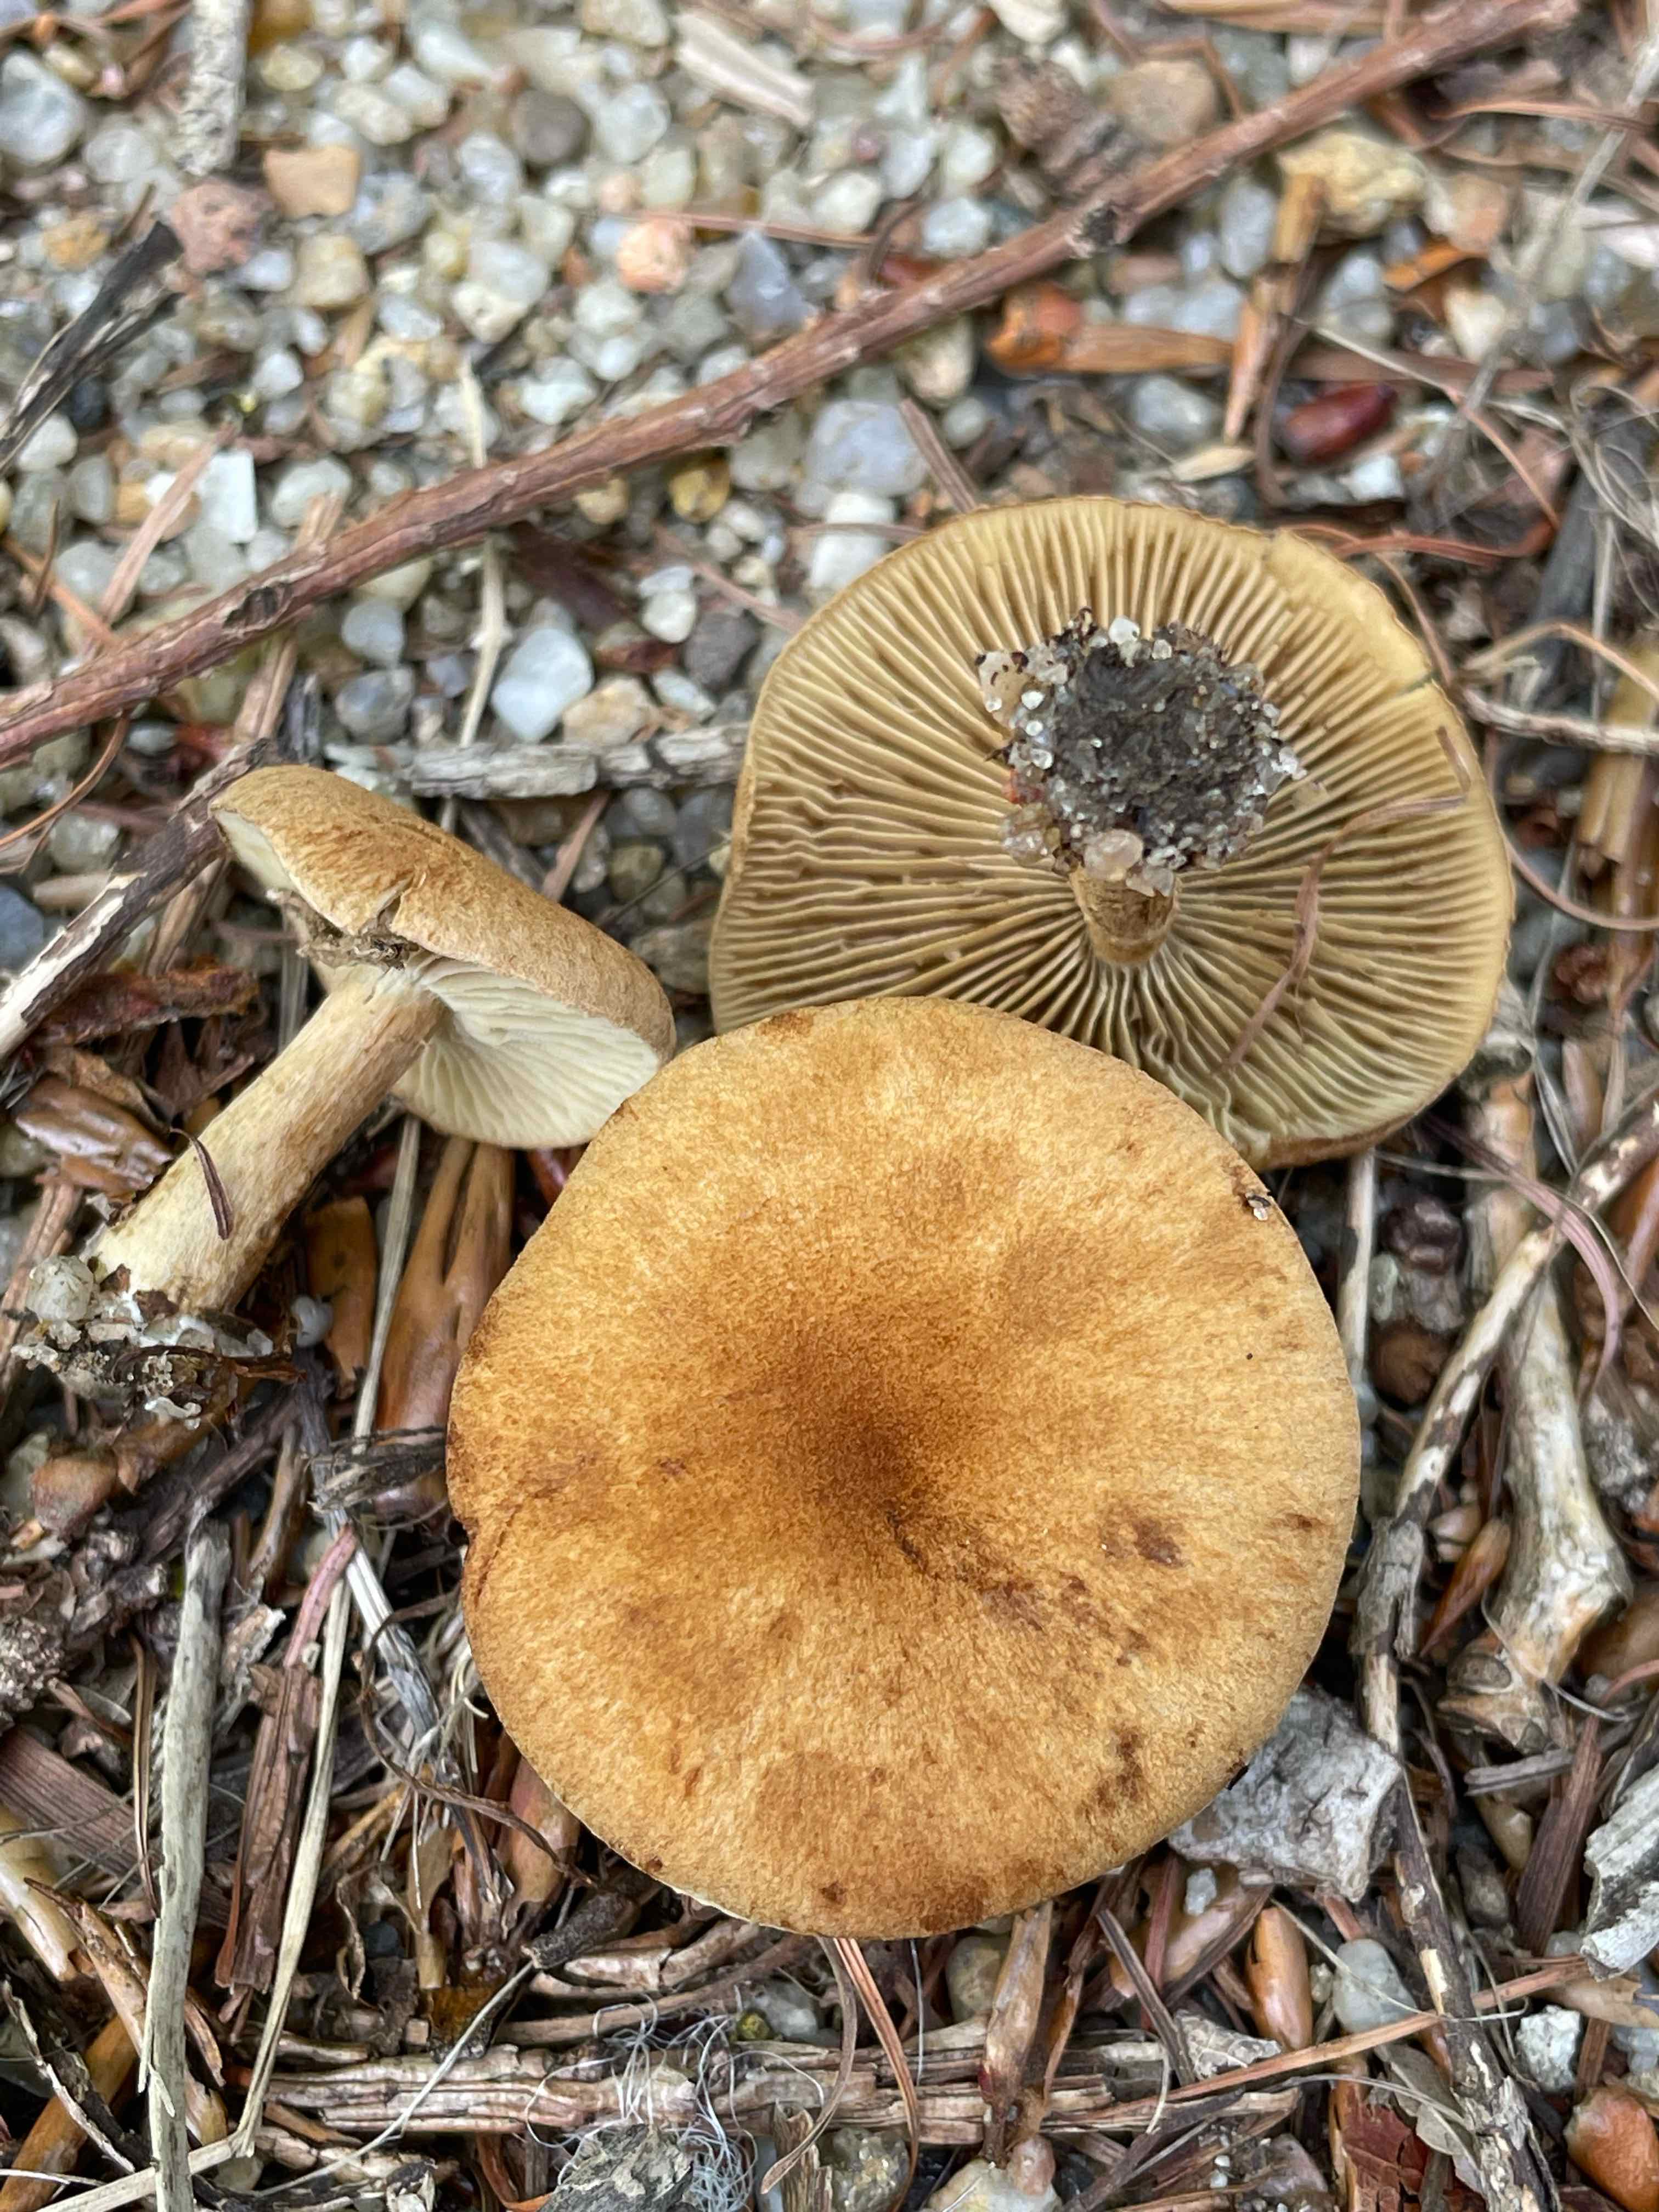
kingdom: Fungi
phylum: Basidiomycota
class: Agaricomycetes
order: Agaricales
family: Inocybaceae
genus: Mallocybe
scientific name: Mallocybe
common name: Trævlhat
